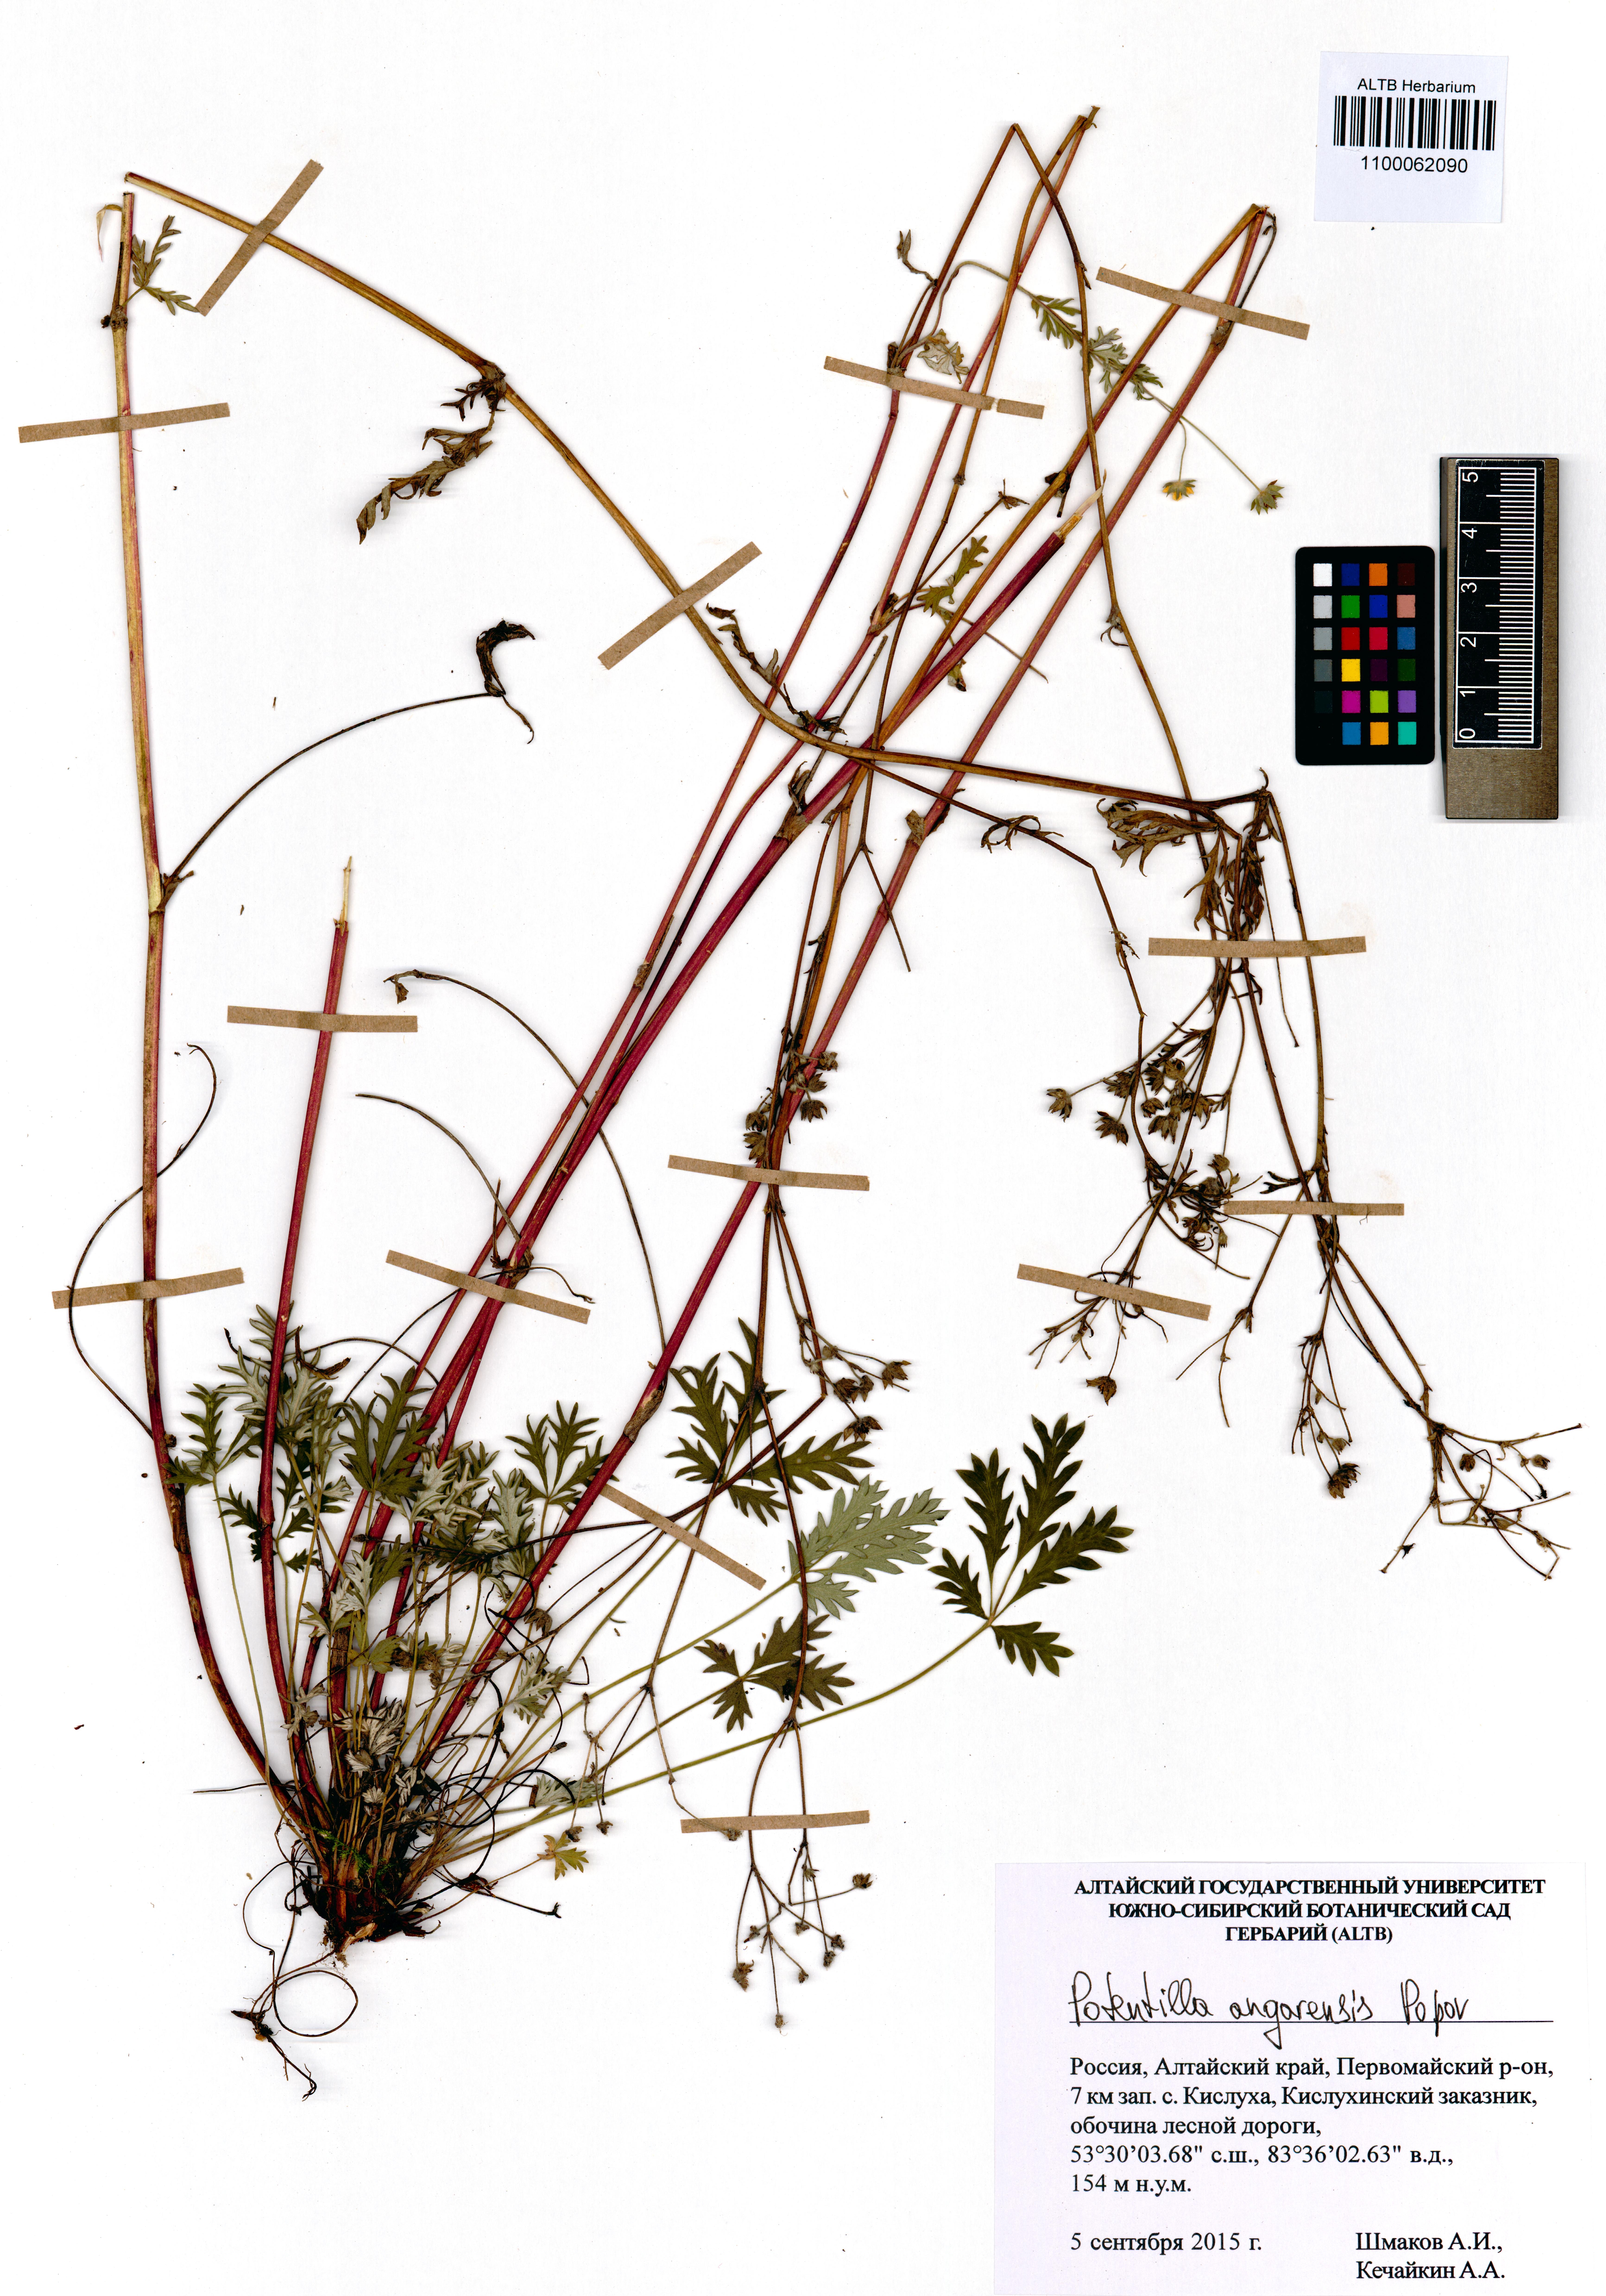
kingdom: Plantae
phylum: Tracheophyta
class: Magnoliopsida
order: Rosales
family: Rosaceae
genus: Potentilla
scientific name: Potentilla angarensis
